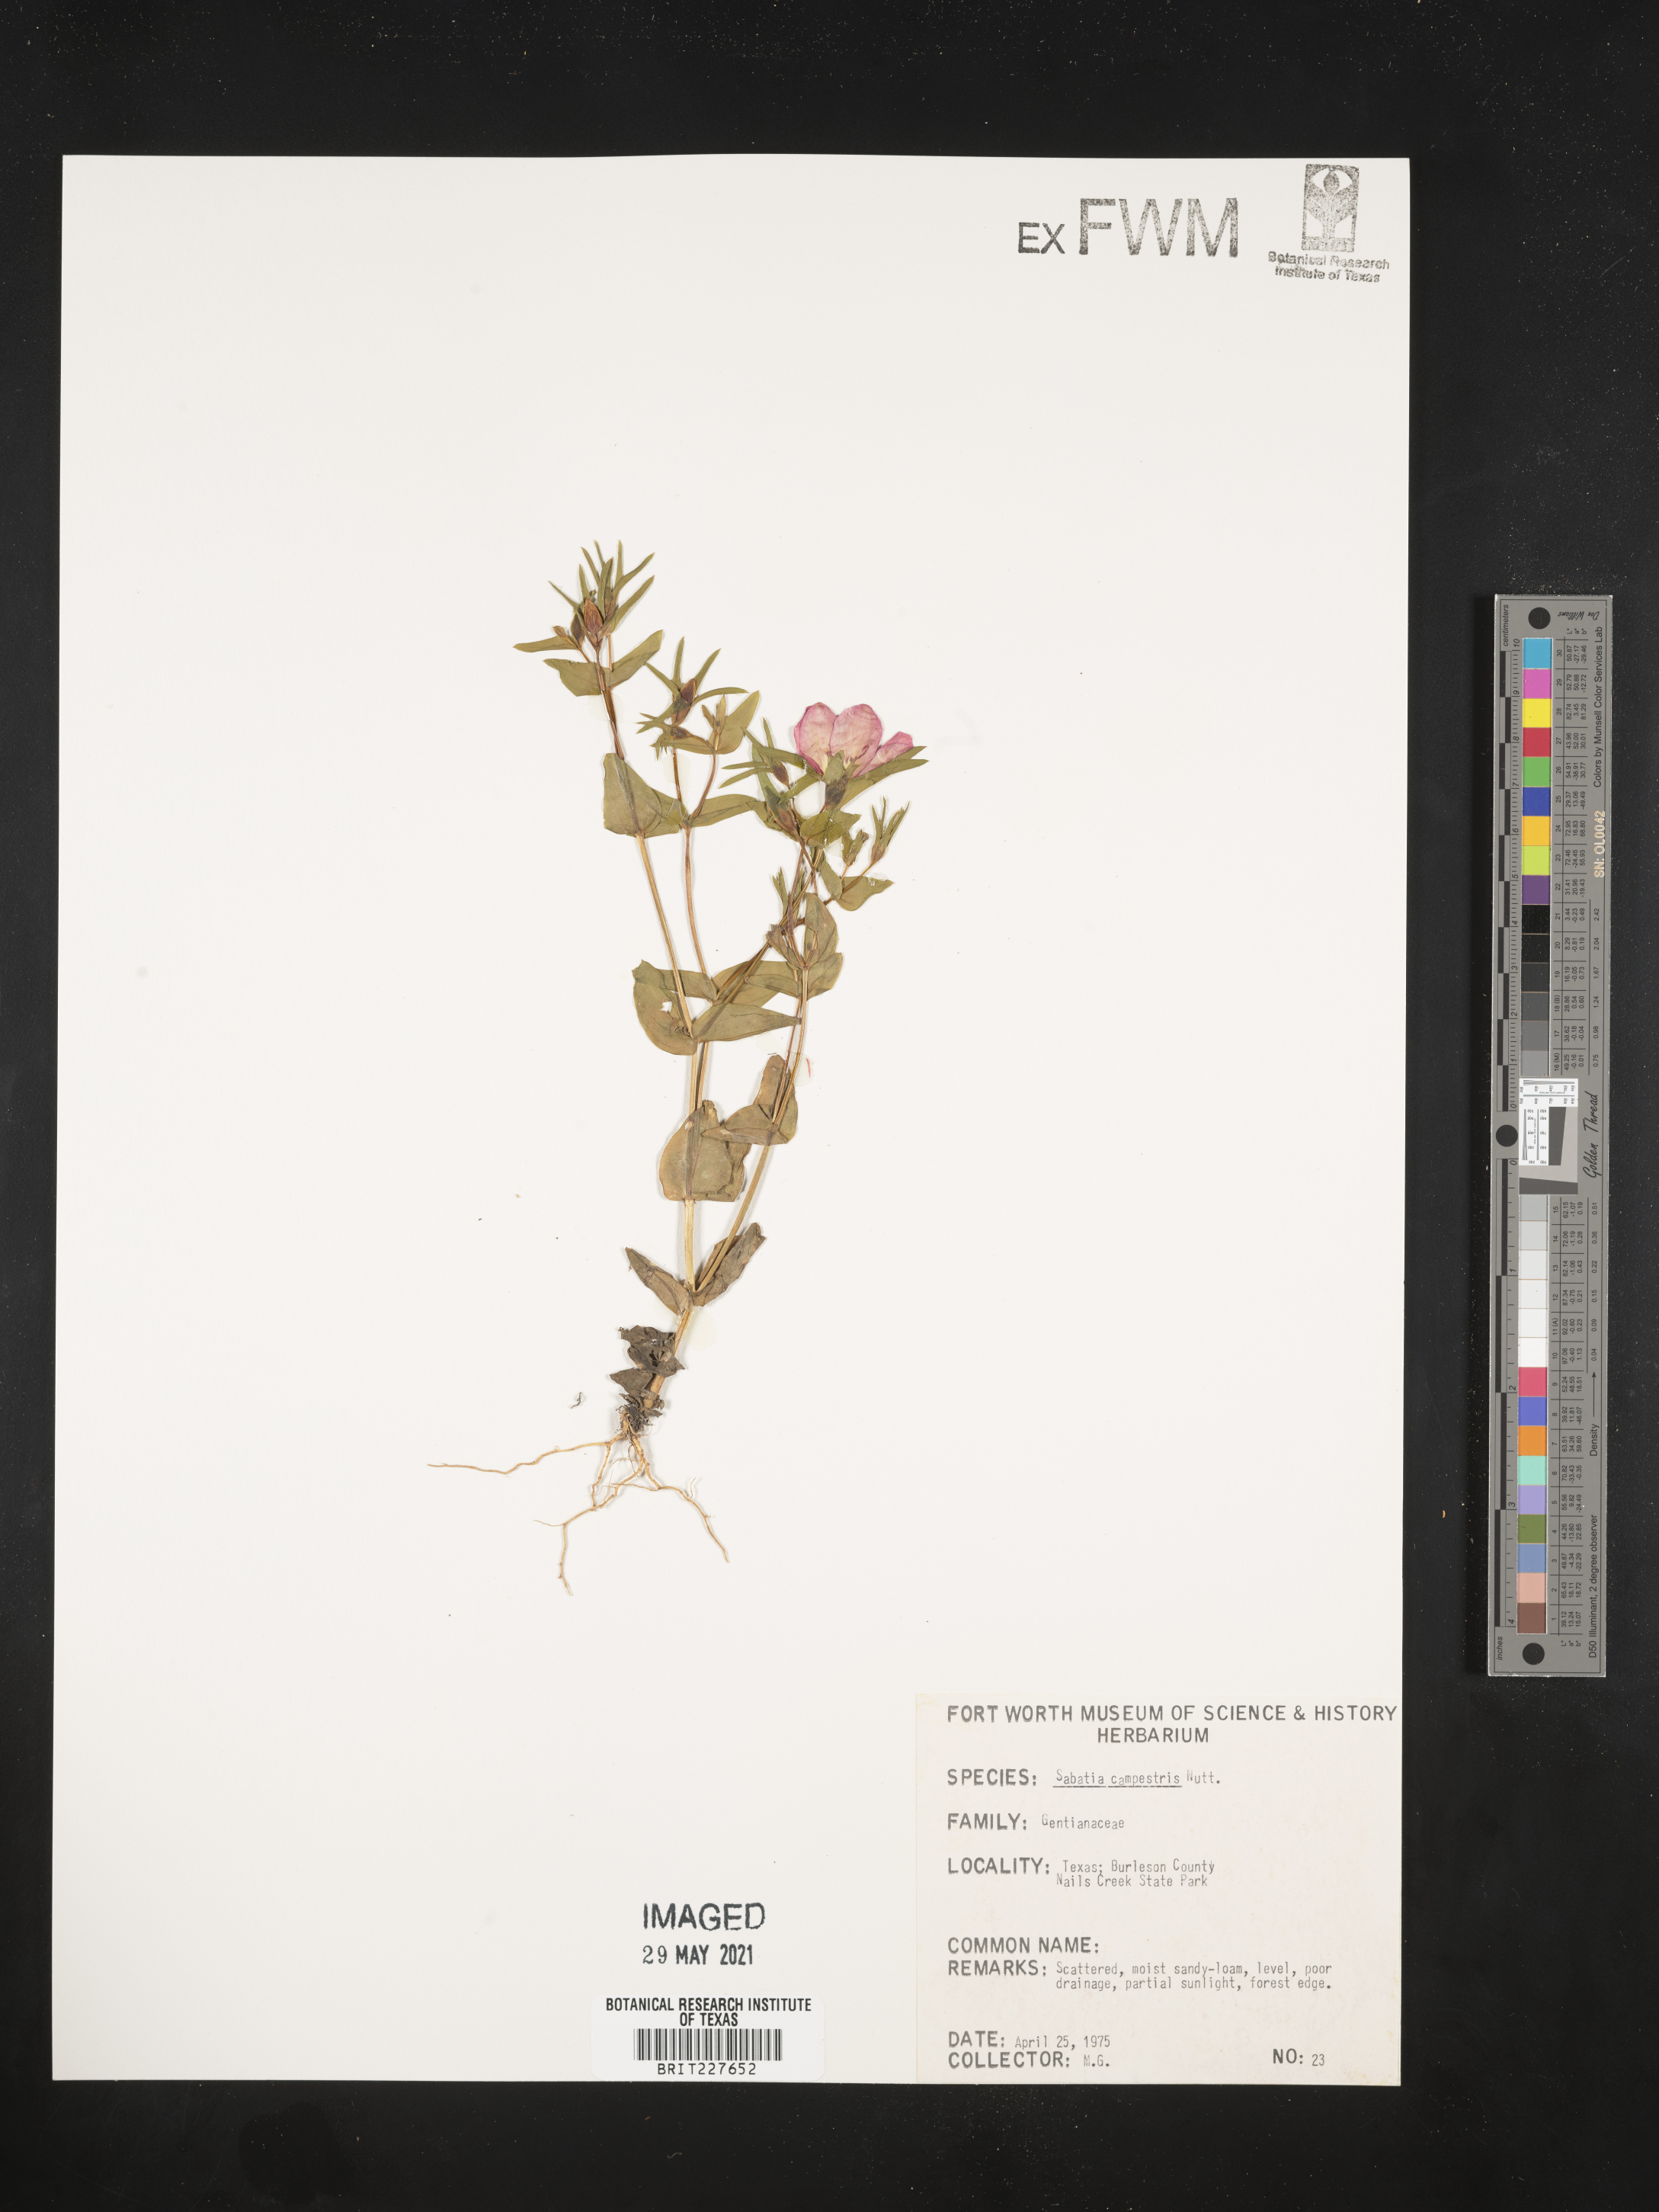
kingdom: Plantae
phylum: Tracheophyta
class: Magnoliopsida
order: Gentianales
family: Gentianaceae
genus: Sabatia
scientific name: Sabatia campestris
